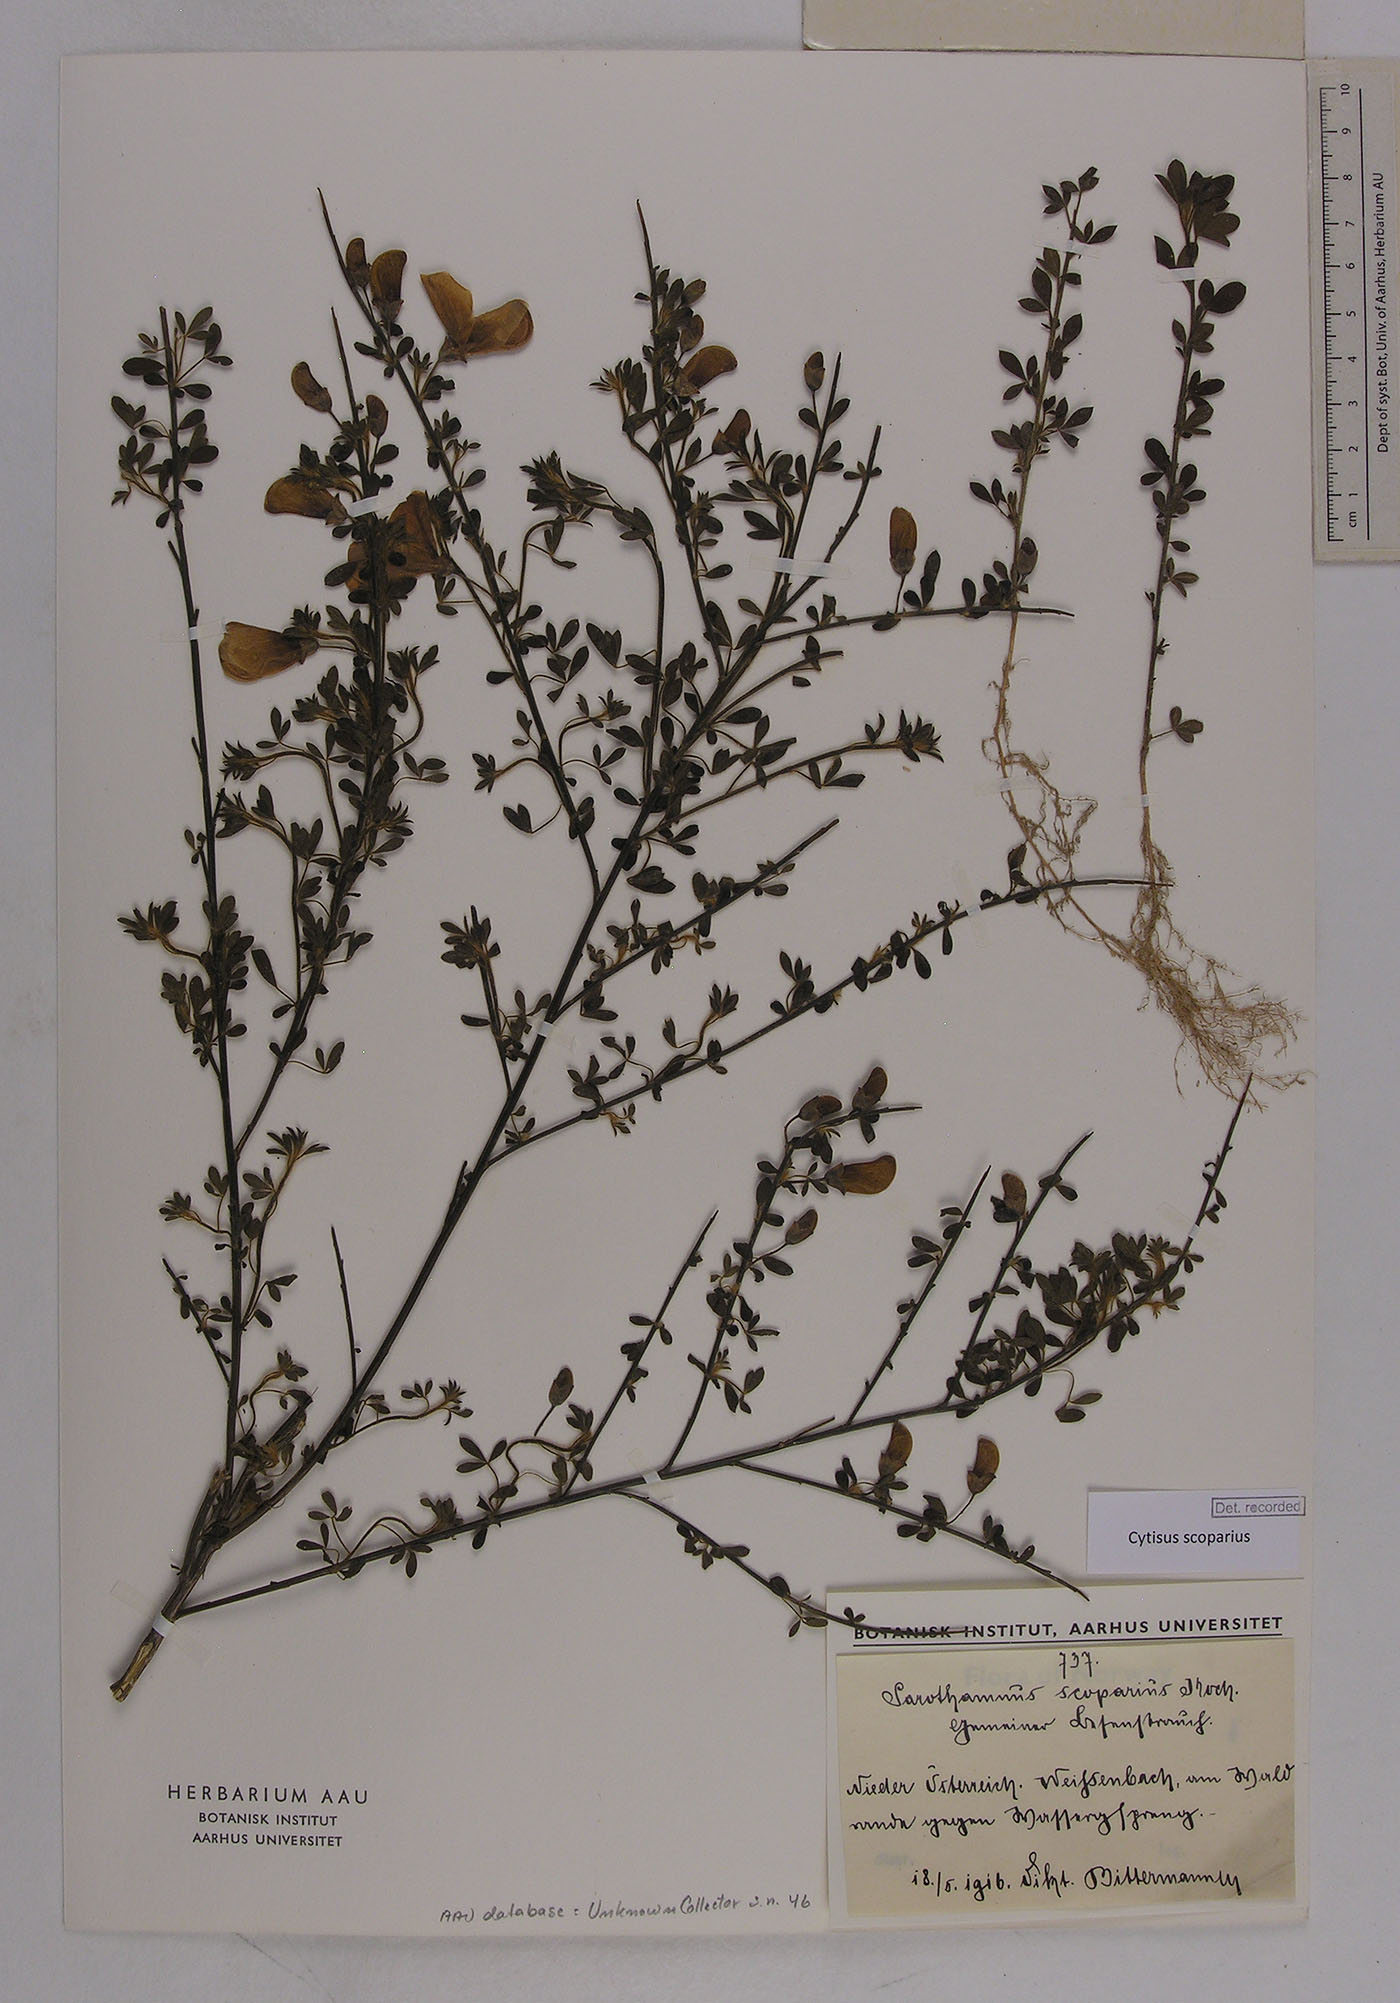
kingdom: Plantae
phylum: Tracheophyta
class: Magnoliopsida
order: Fabales
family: Fabaceae
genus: Cytisus
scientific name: Cytisus scoparius
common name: Scotch broom
